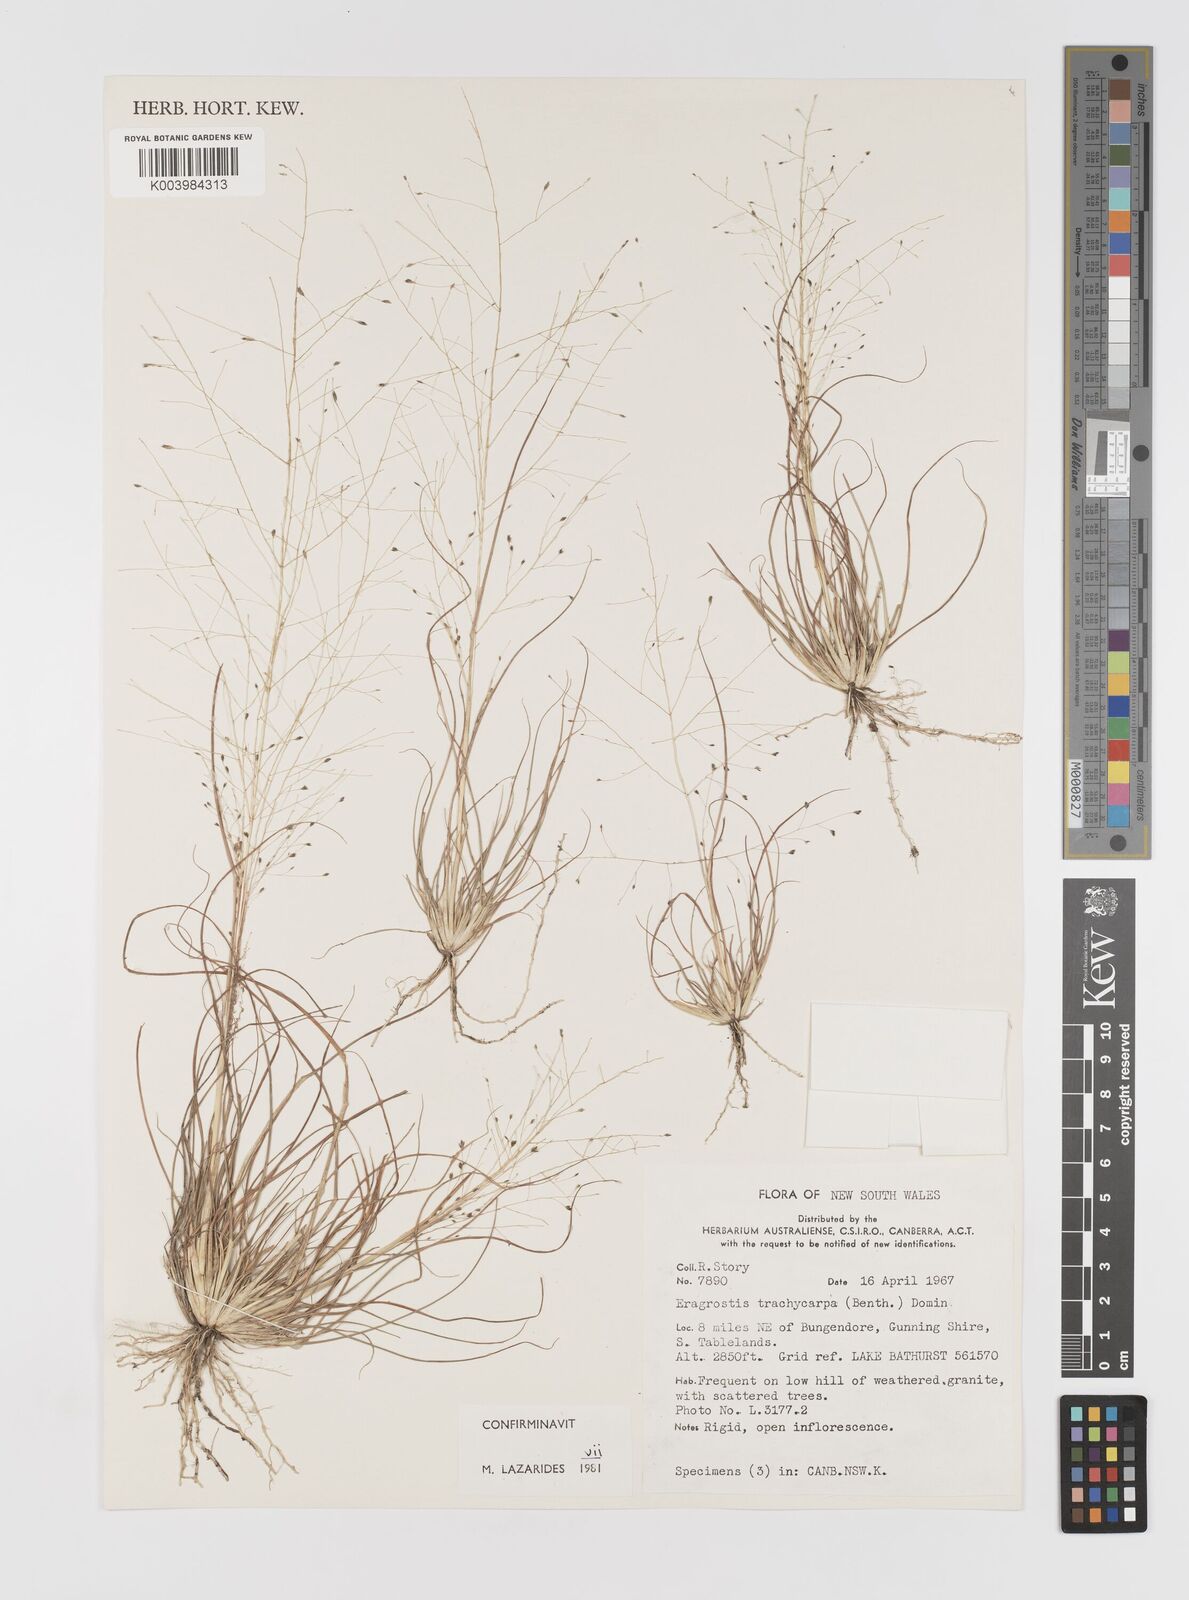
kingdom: Plantae
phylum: Tracheophyta
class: Liliopsida
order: Poales
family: Poaceae
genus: Eragrostis
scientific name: Eragrostis trachycarpa
